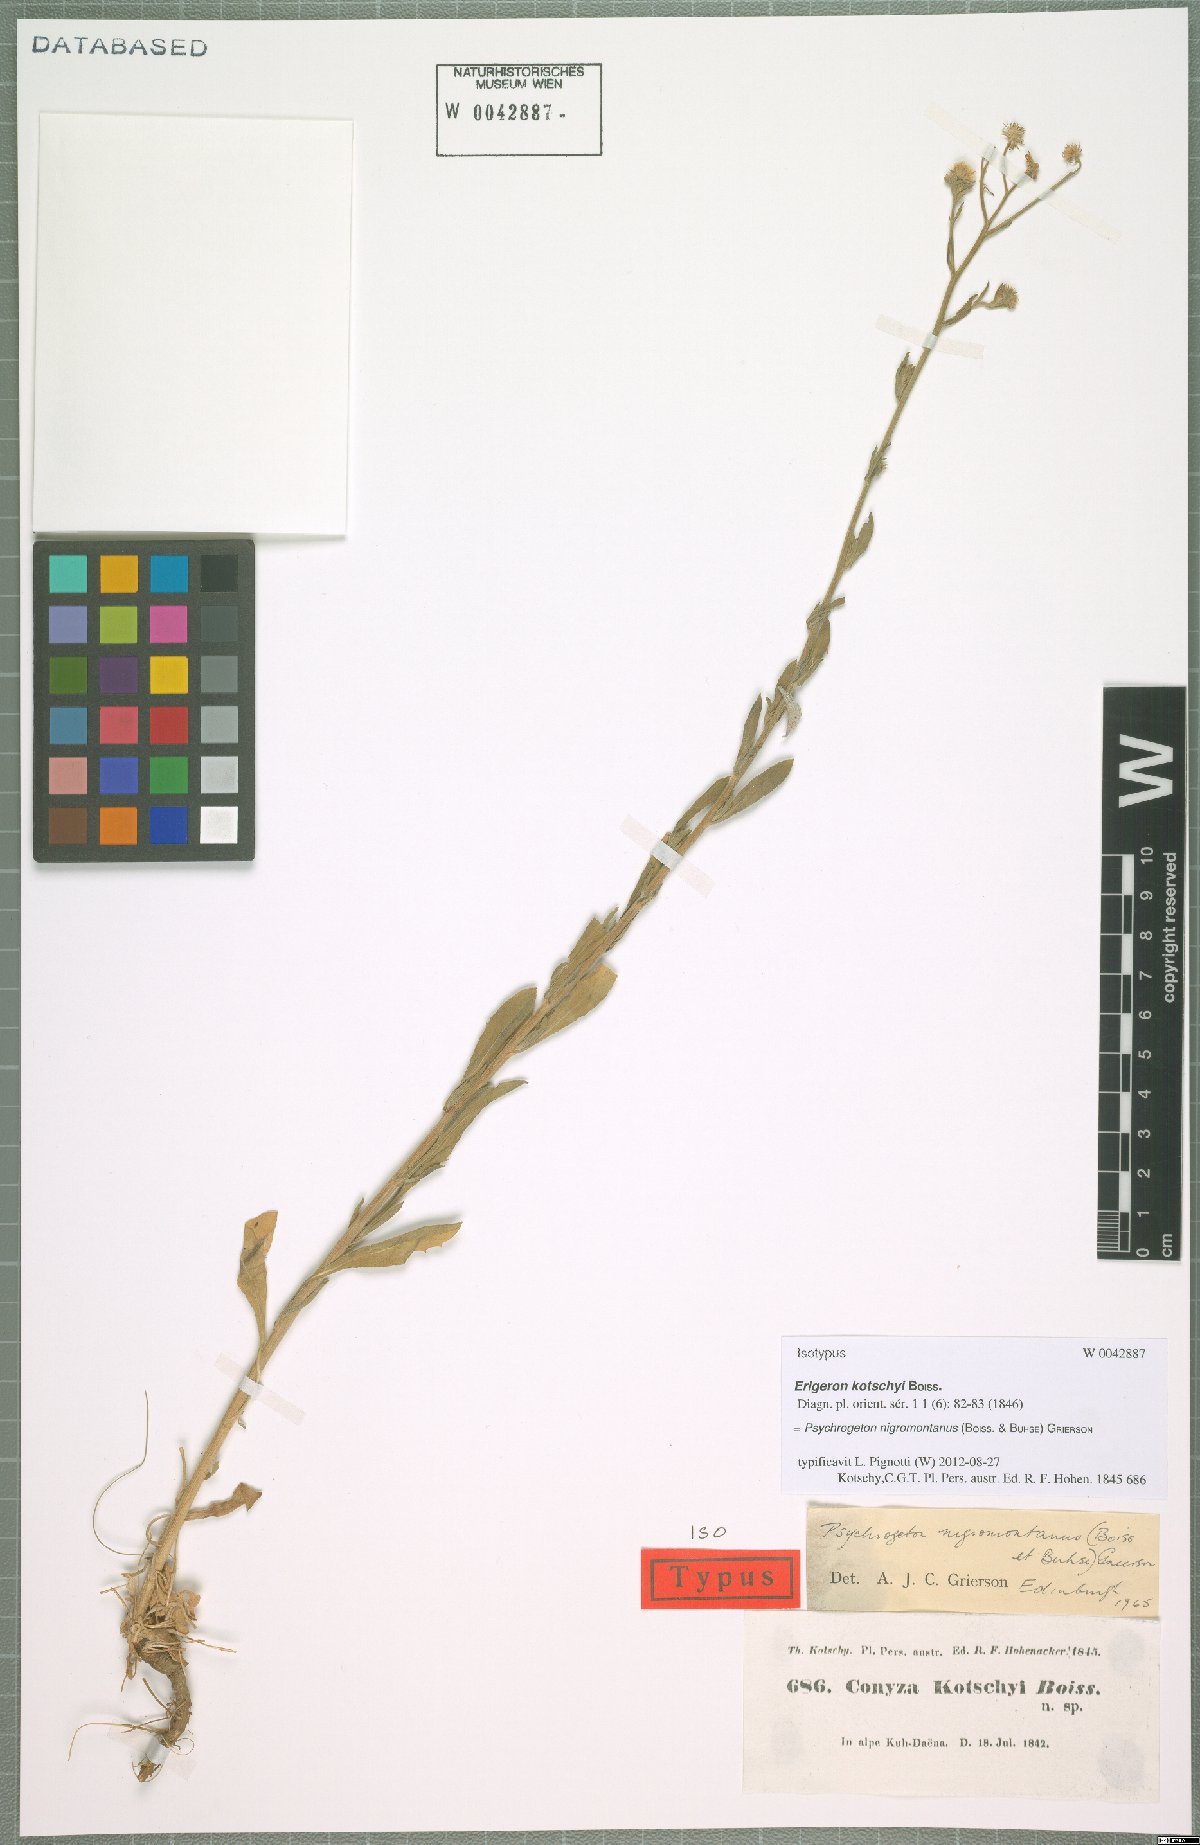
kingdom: Plantae
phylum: Tracheophyta
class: Magnoliopsida
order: Asterales
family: Asteraceae
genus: Psychrogeton
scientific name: Psychrogeton nigromontanus
